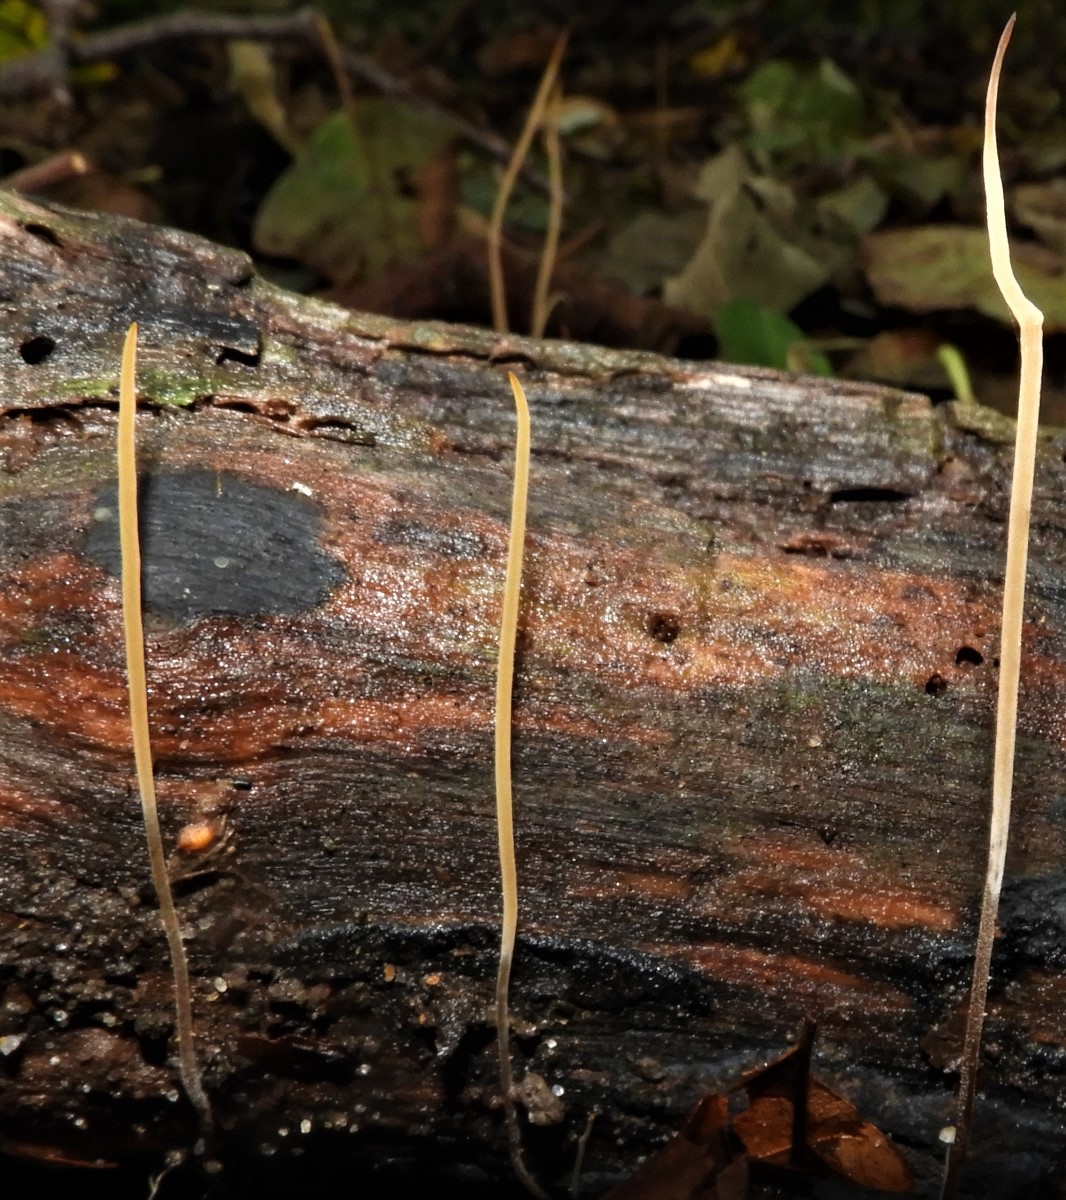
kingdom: Fungi
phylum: Basidiomycota
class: Agaricomycetes
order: Agaricales
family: Typhulaceae
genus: Typhula
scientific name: Typhula juncea
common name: trådagtig rørkølle
